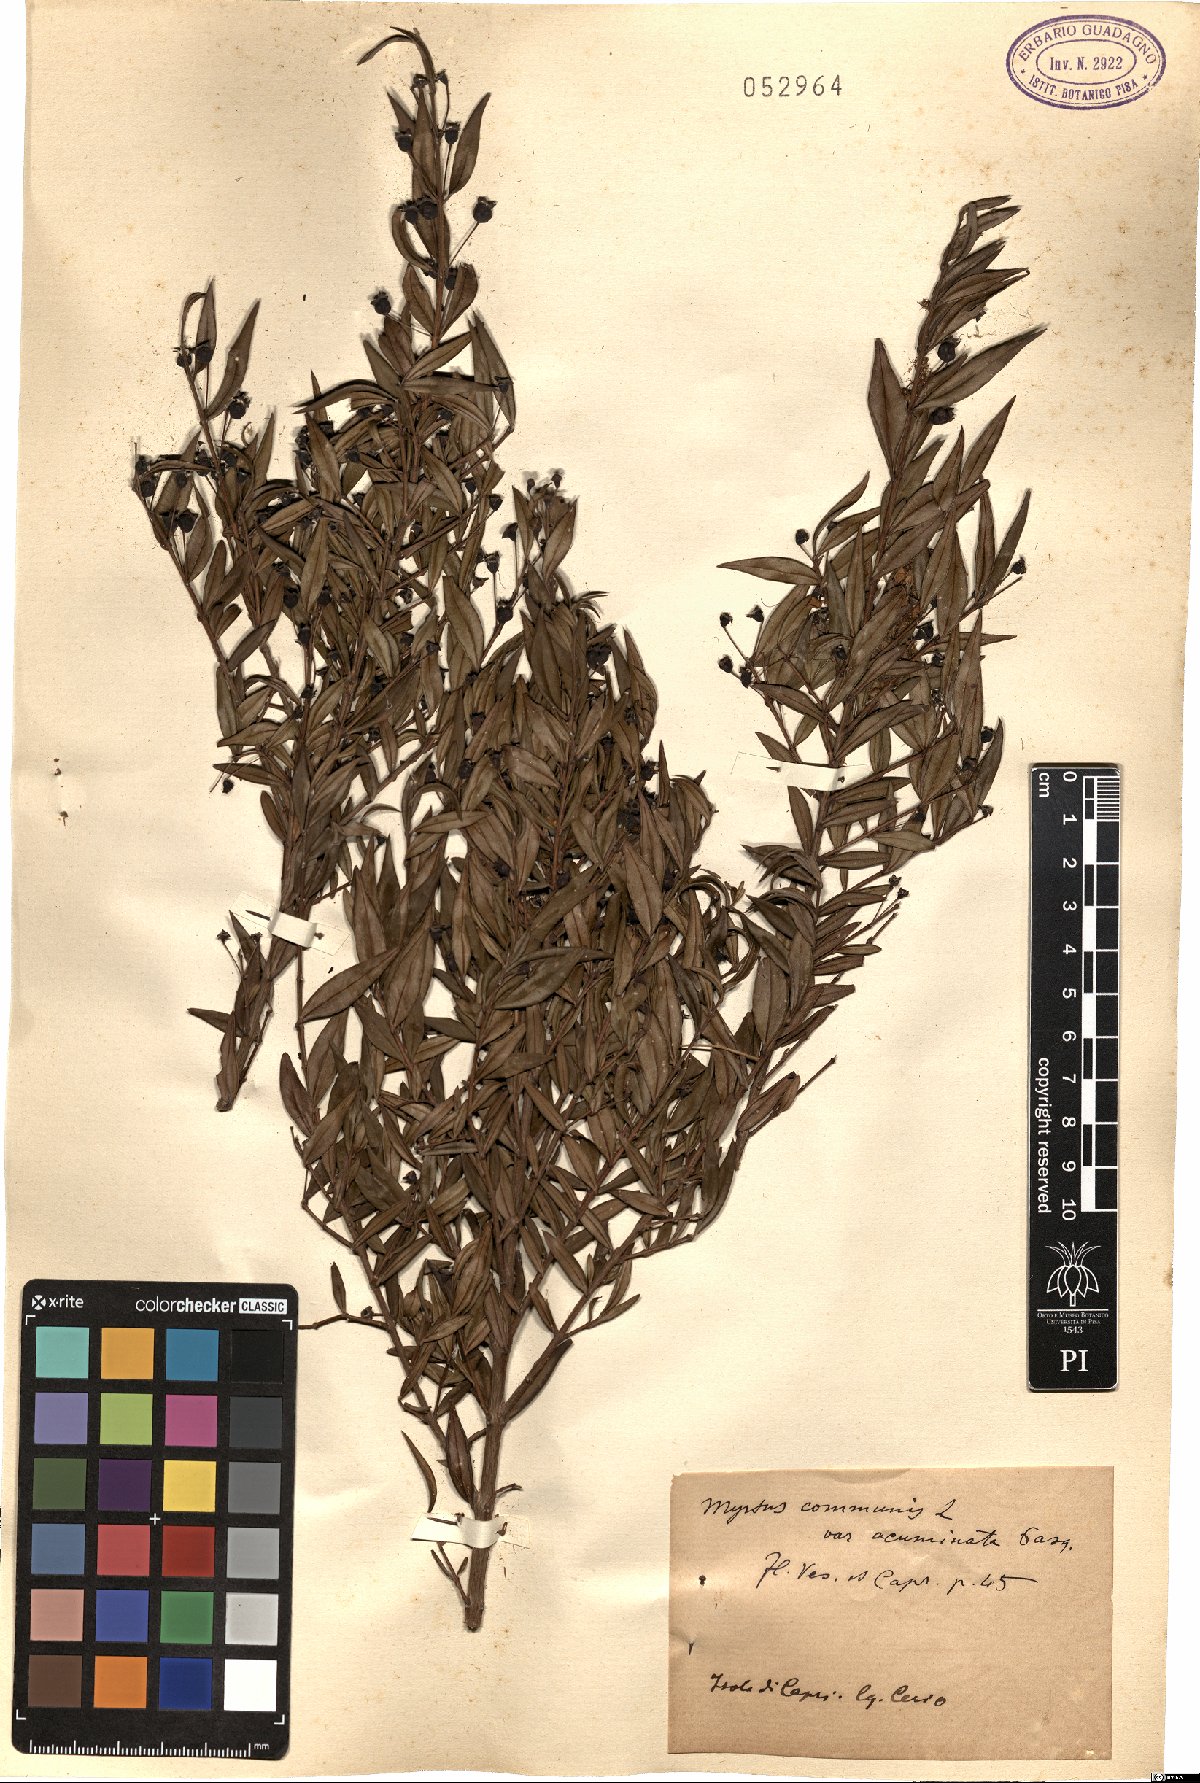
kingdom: Plantae
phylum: Tracheophyta
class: Magnoliopsida
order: Myrtales
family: Myrtaceae
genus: Myrtus
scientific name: Myrtus communis
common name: Myrtle
